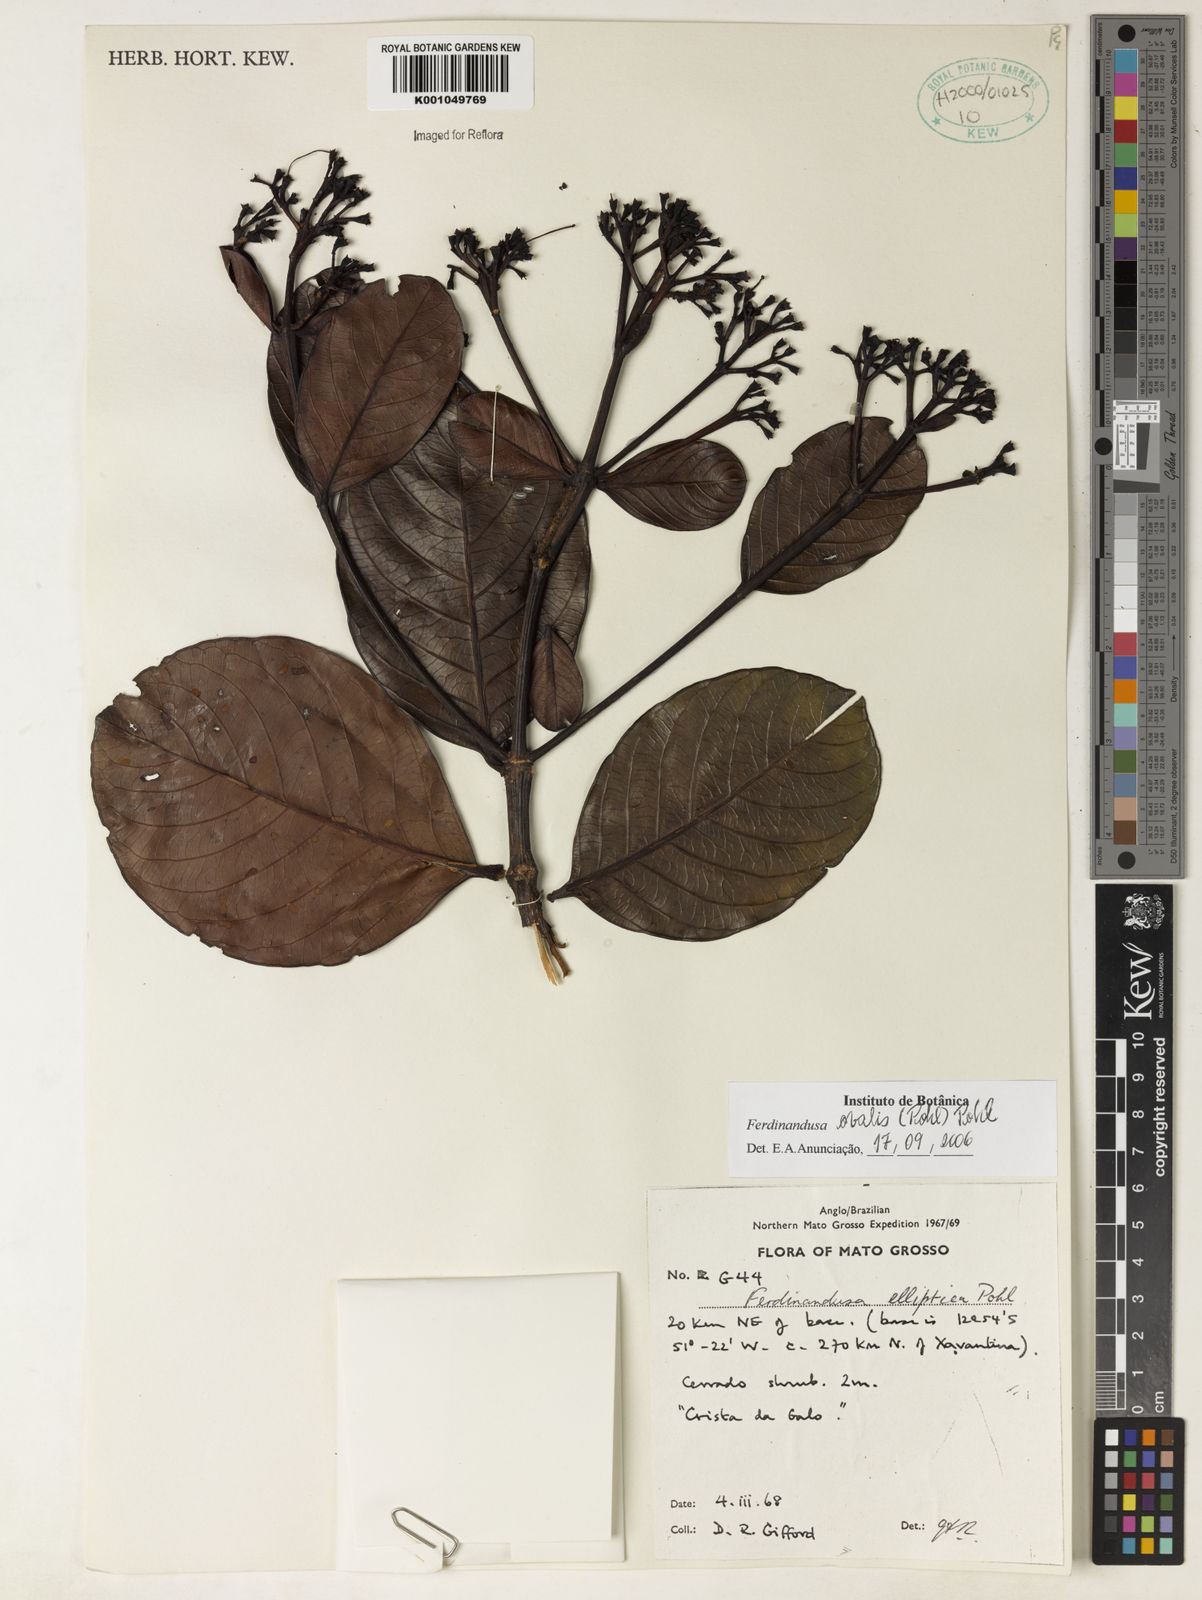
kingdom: Plantae
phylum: Tracheophyta
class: Magnoliopsida
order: Gentianales
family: Rubiaceae
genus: Ferdinandusa
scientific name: Ferdinandusa elliptica
